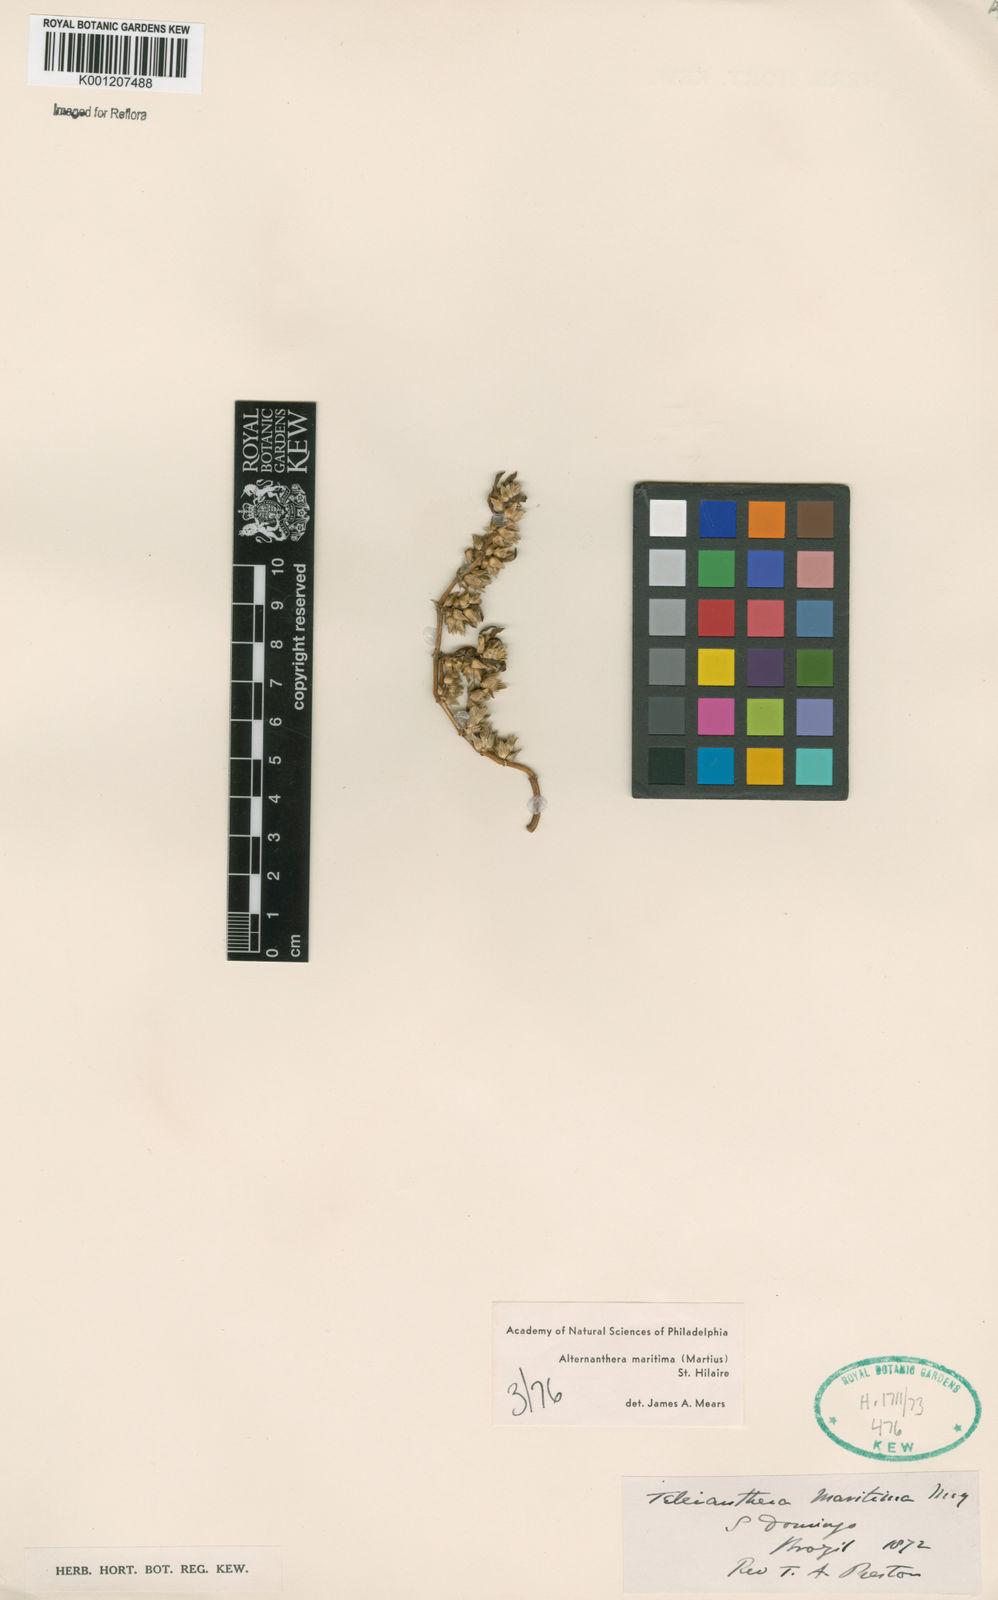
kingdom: Plantae
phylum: Tracheophyta
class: Magnoliopsida
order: Caryophyllales
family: Amaranthaceae
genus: Alternanthera
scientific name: Alternanthera littoralis
